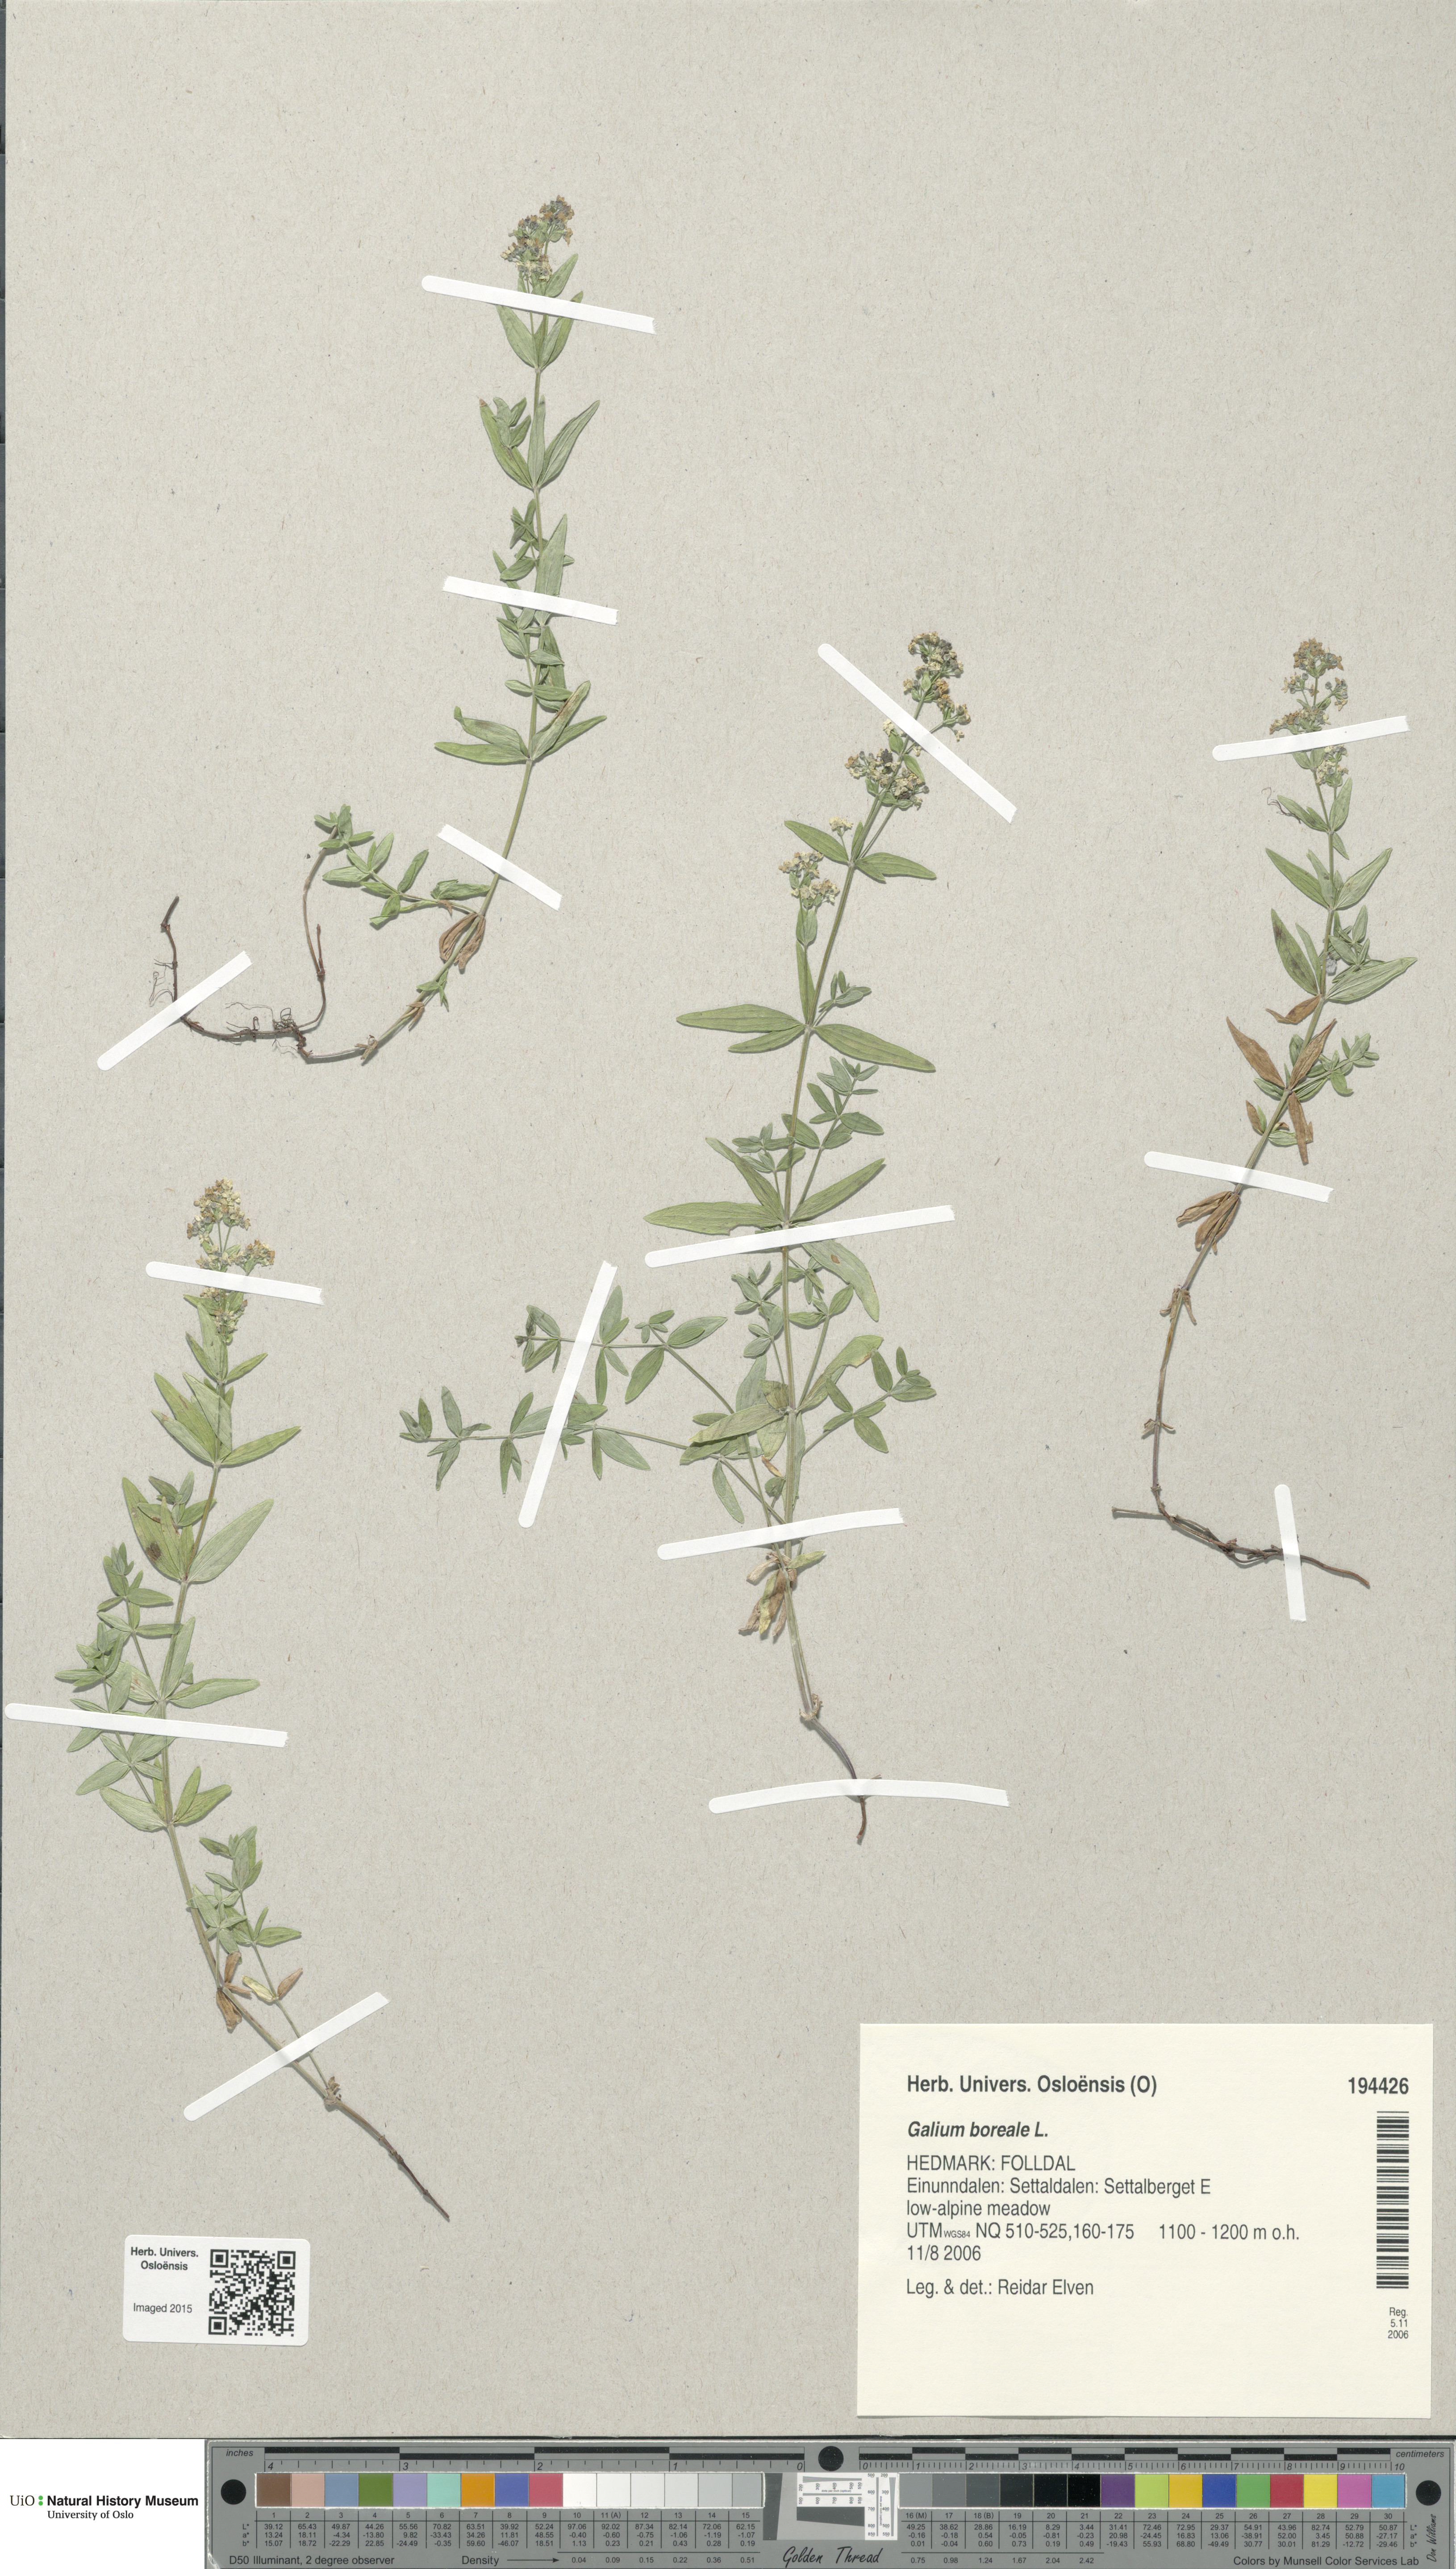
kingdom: Plantae
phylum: Tracheophyta
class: Magnoliopsida
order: Gentianales
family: Rubiaceae
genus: Galium
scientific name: Galium boreale
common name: Northern bedstraw
